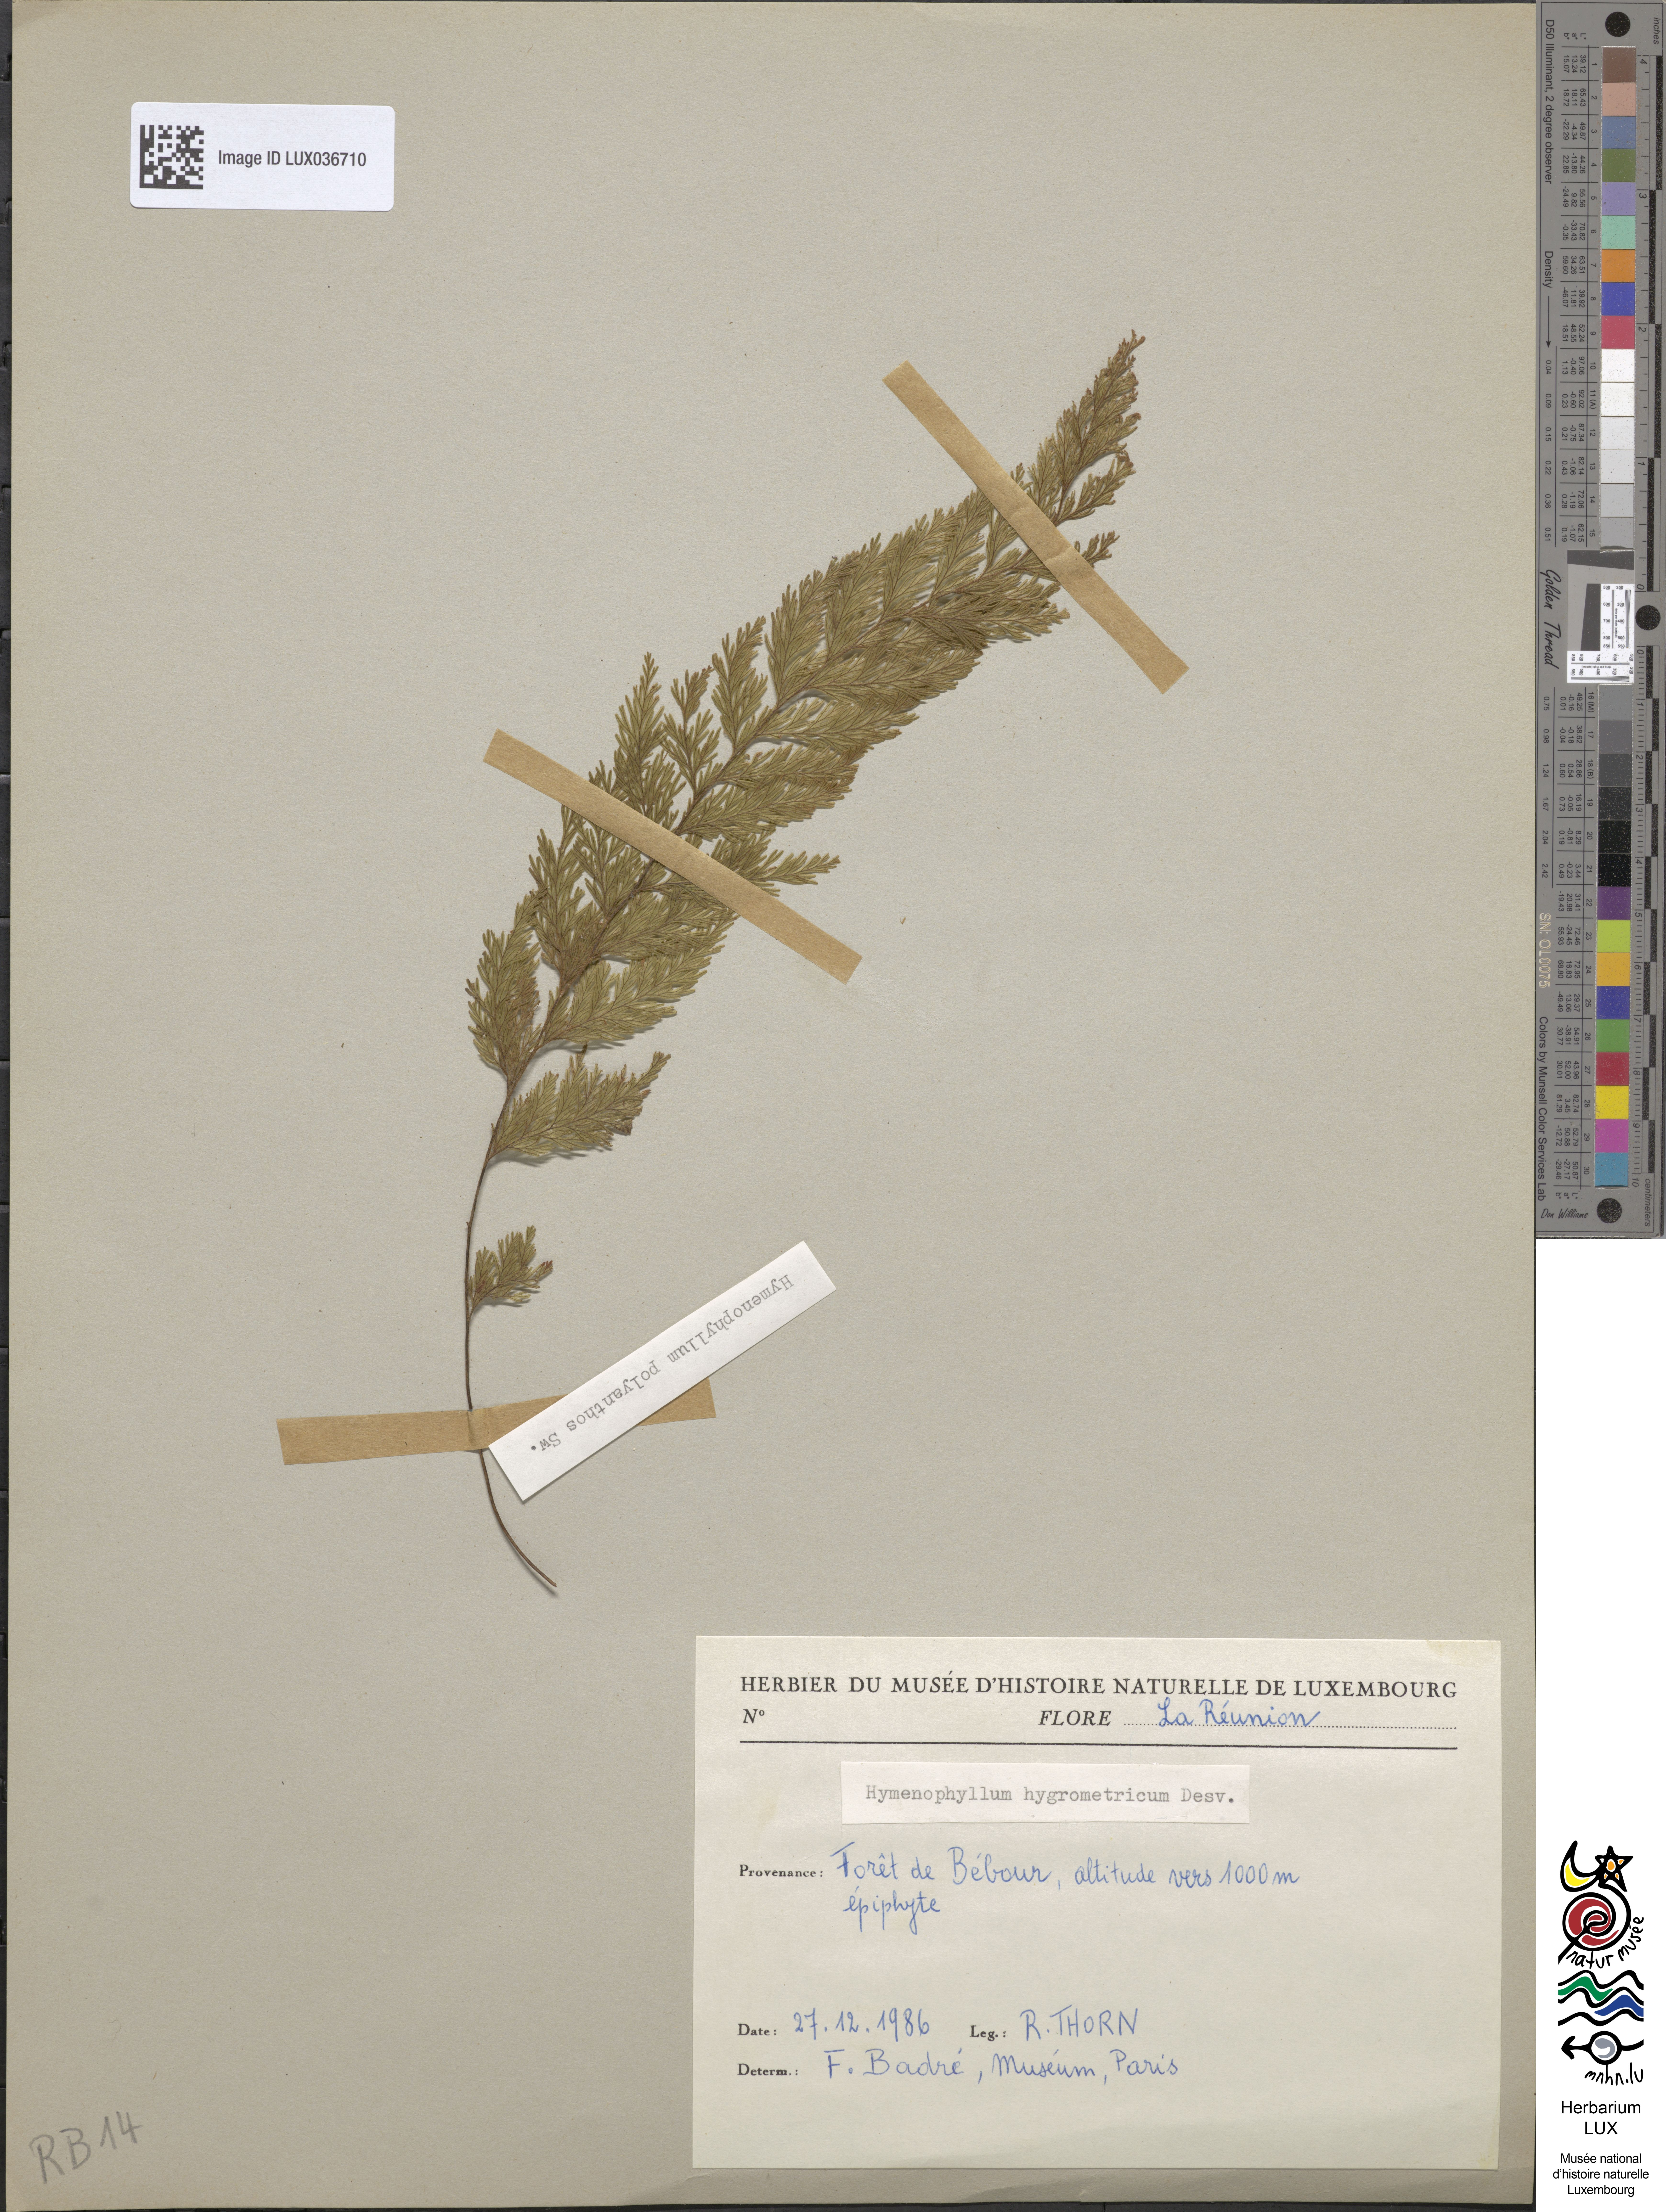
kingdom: Plantae
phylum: Tracheophyta
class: Polypodiopsida
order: Hymenophyllales
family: Hymenophyllaceae
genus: Hymenophyllum
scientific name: Hymenophyllum polyanthos
